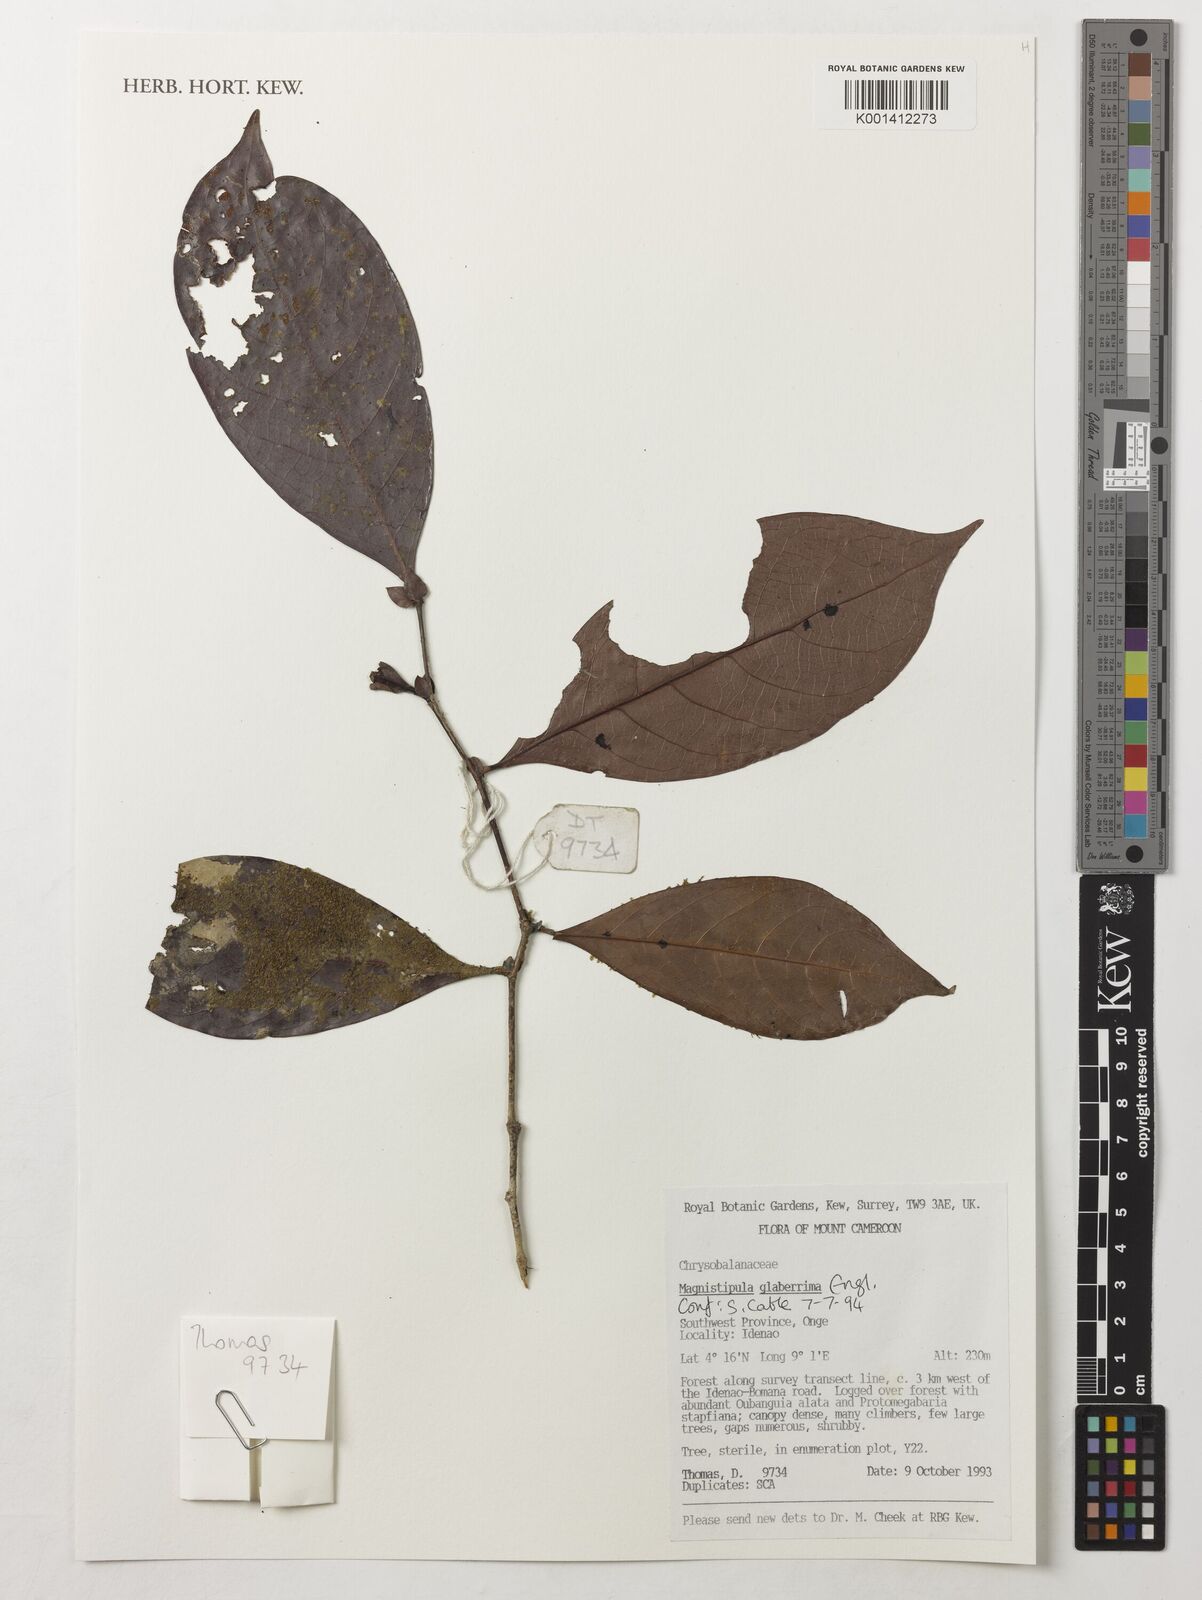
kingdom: Plantae
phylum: Tracheophyta
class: Magnoliopsida
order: Malpighiales
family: Chrysobalanaceae
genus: Magnistipula
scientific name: Magnistipula glaberrima
